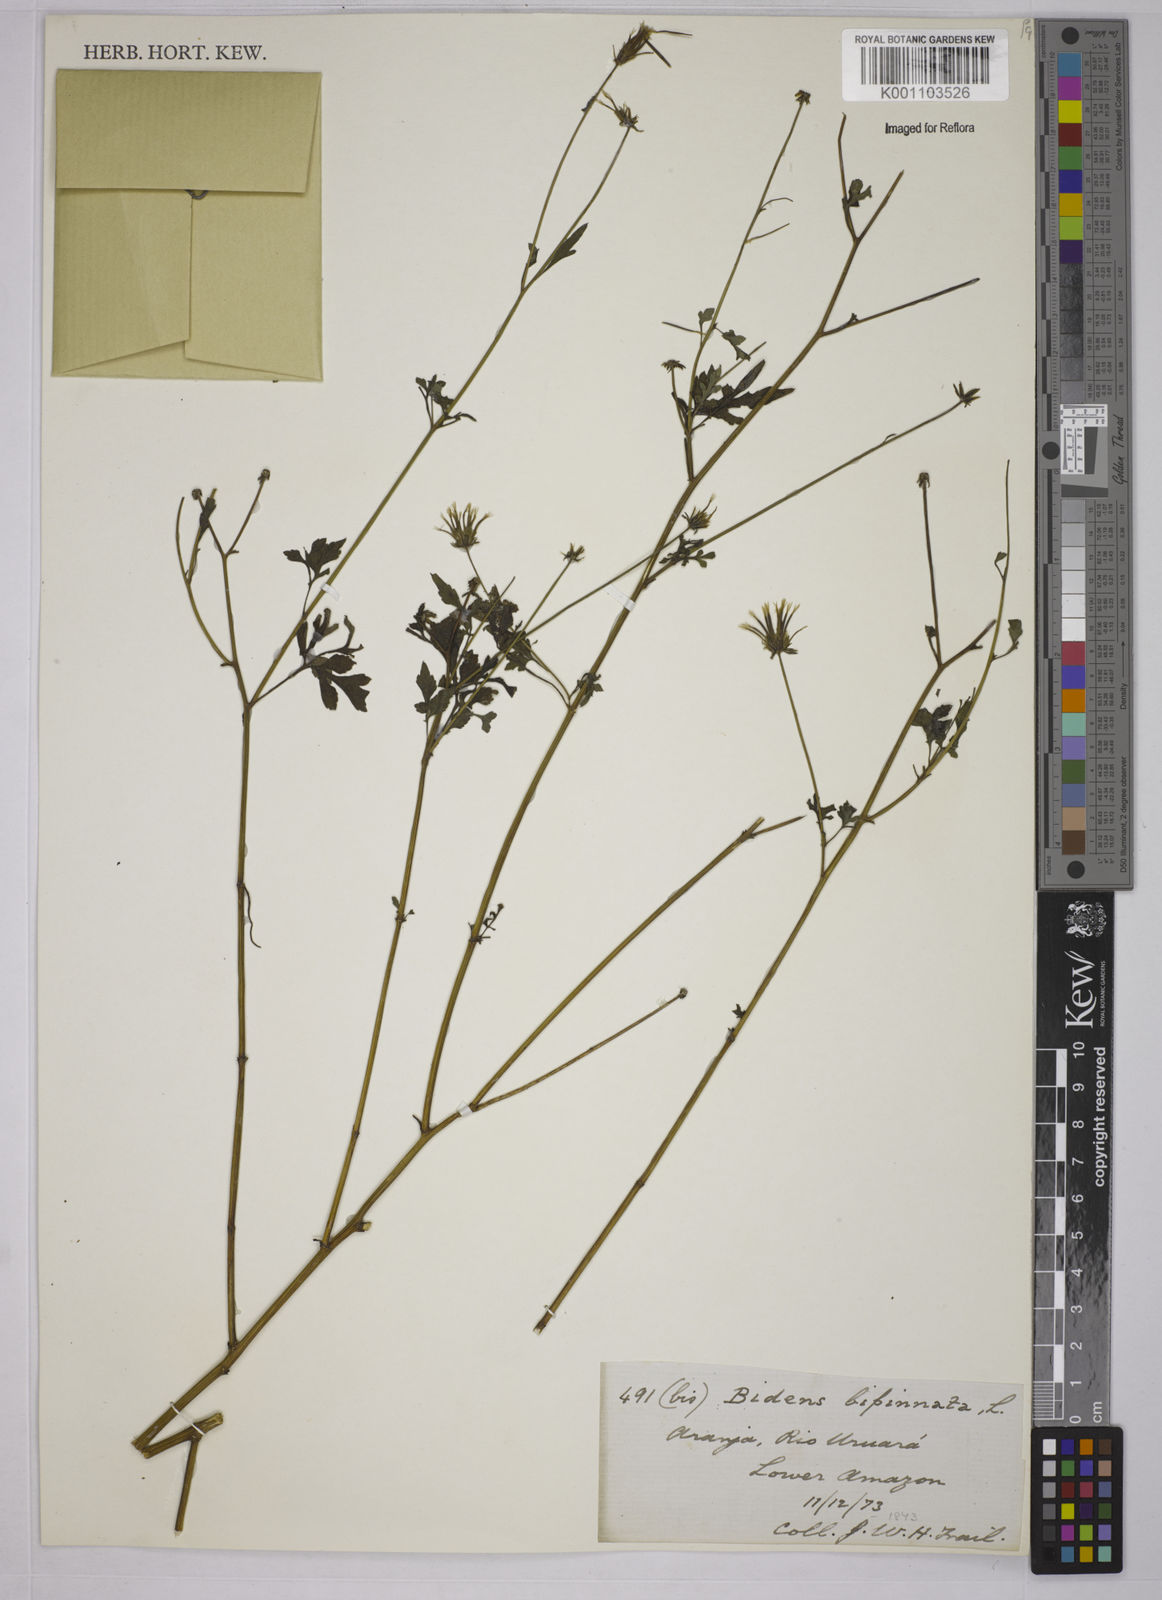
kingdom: Plantae
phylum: Tracheophyta
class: Magnoliopsida
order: Asterales
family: Asteraceae
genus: Bidens
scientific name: Bidens bipinnata
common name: Spanish-needles
